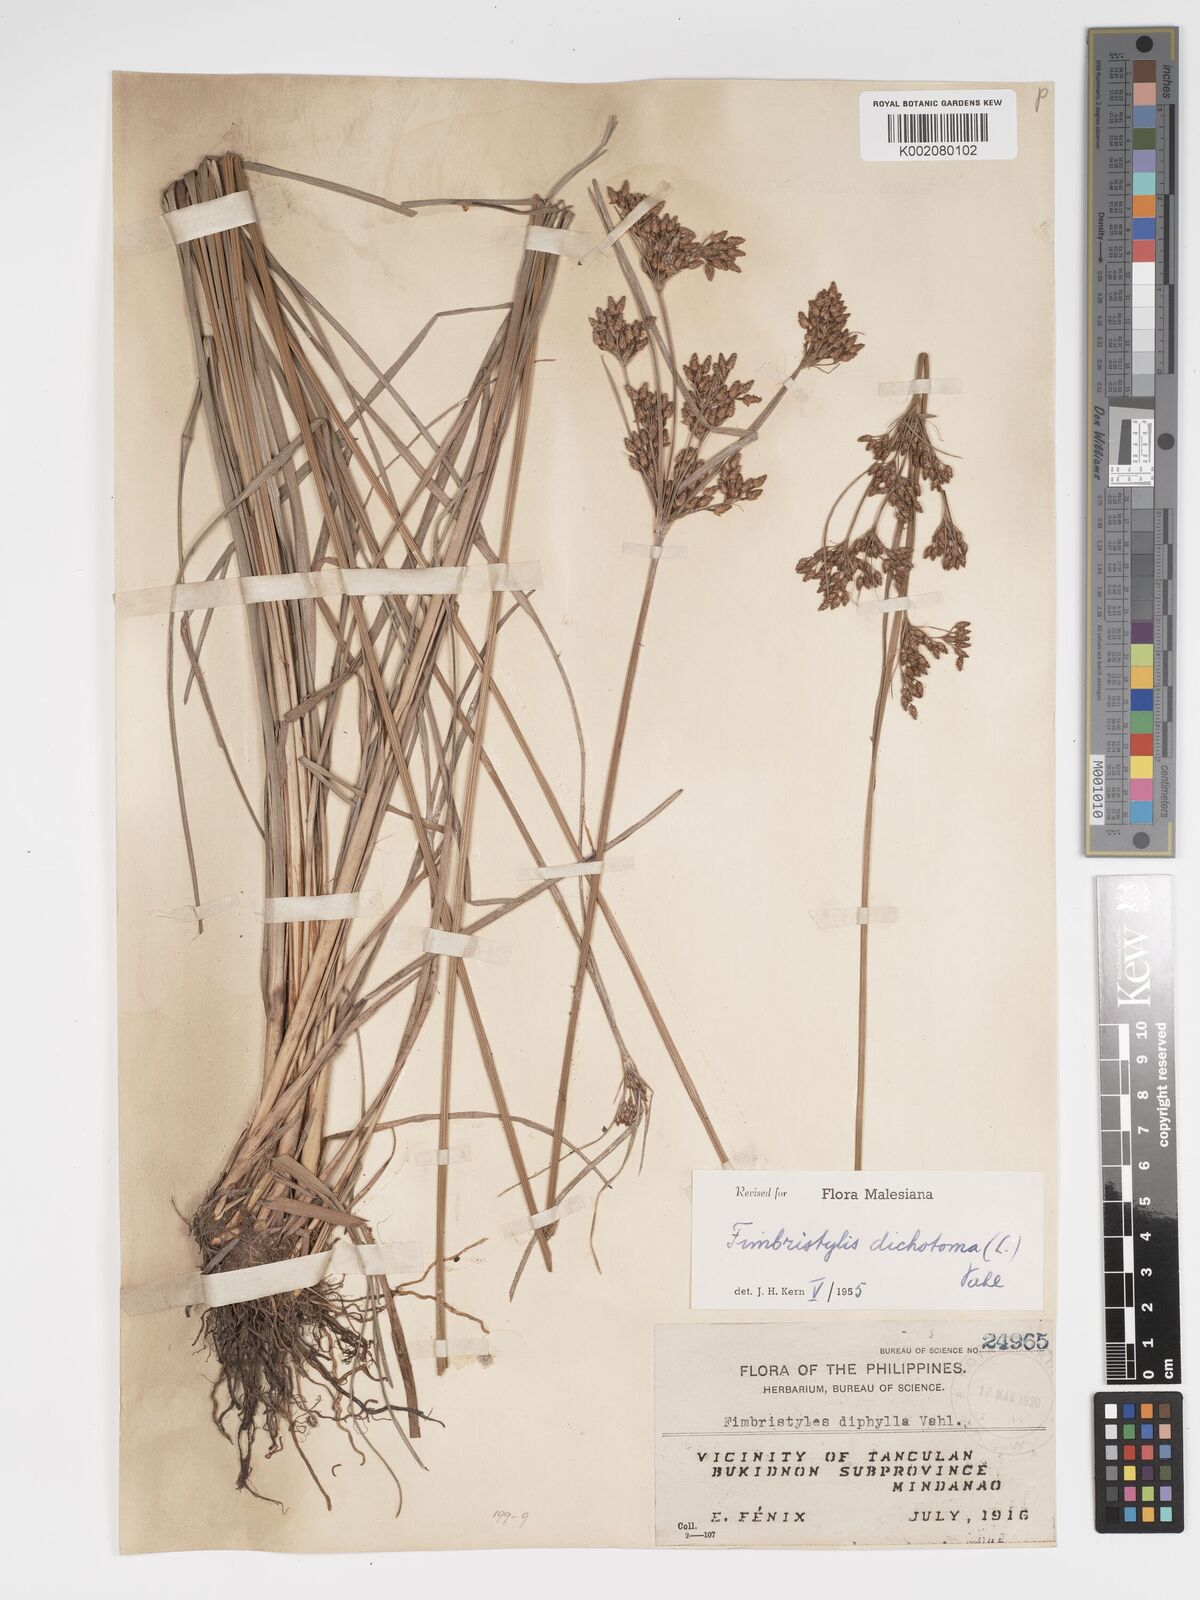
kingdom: Plantae
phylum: Tracheophyta
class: Liliopsida
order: Poales
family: Cyperaceae
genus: Fimbristylis
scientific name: Fimbristylis dichotoma
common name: Forked fimbry
